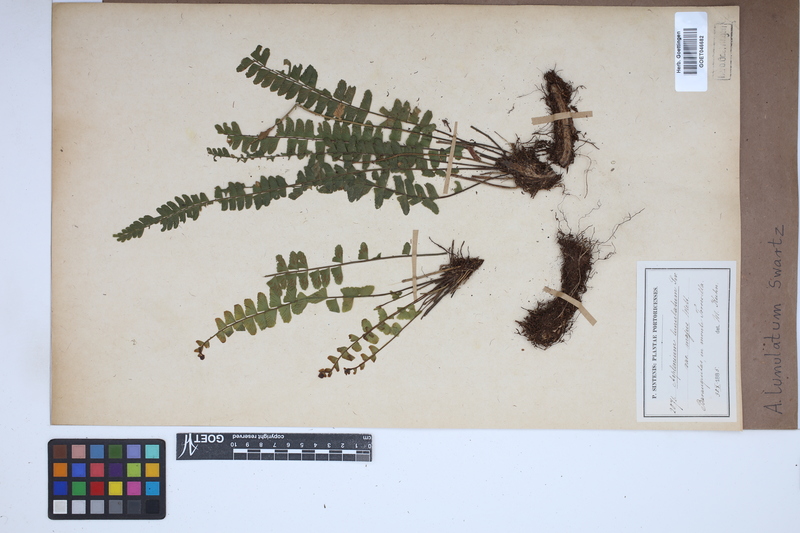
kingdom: Plantae
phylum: Tracheophyta
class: Polypodiopsida
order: Polypodiales
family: Aspleniaceae
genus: Asplenium
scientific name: Asplenium lunulatum
